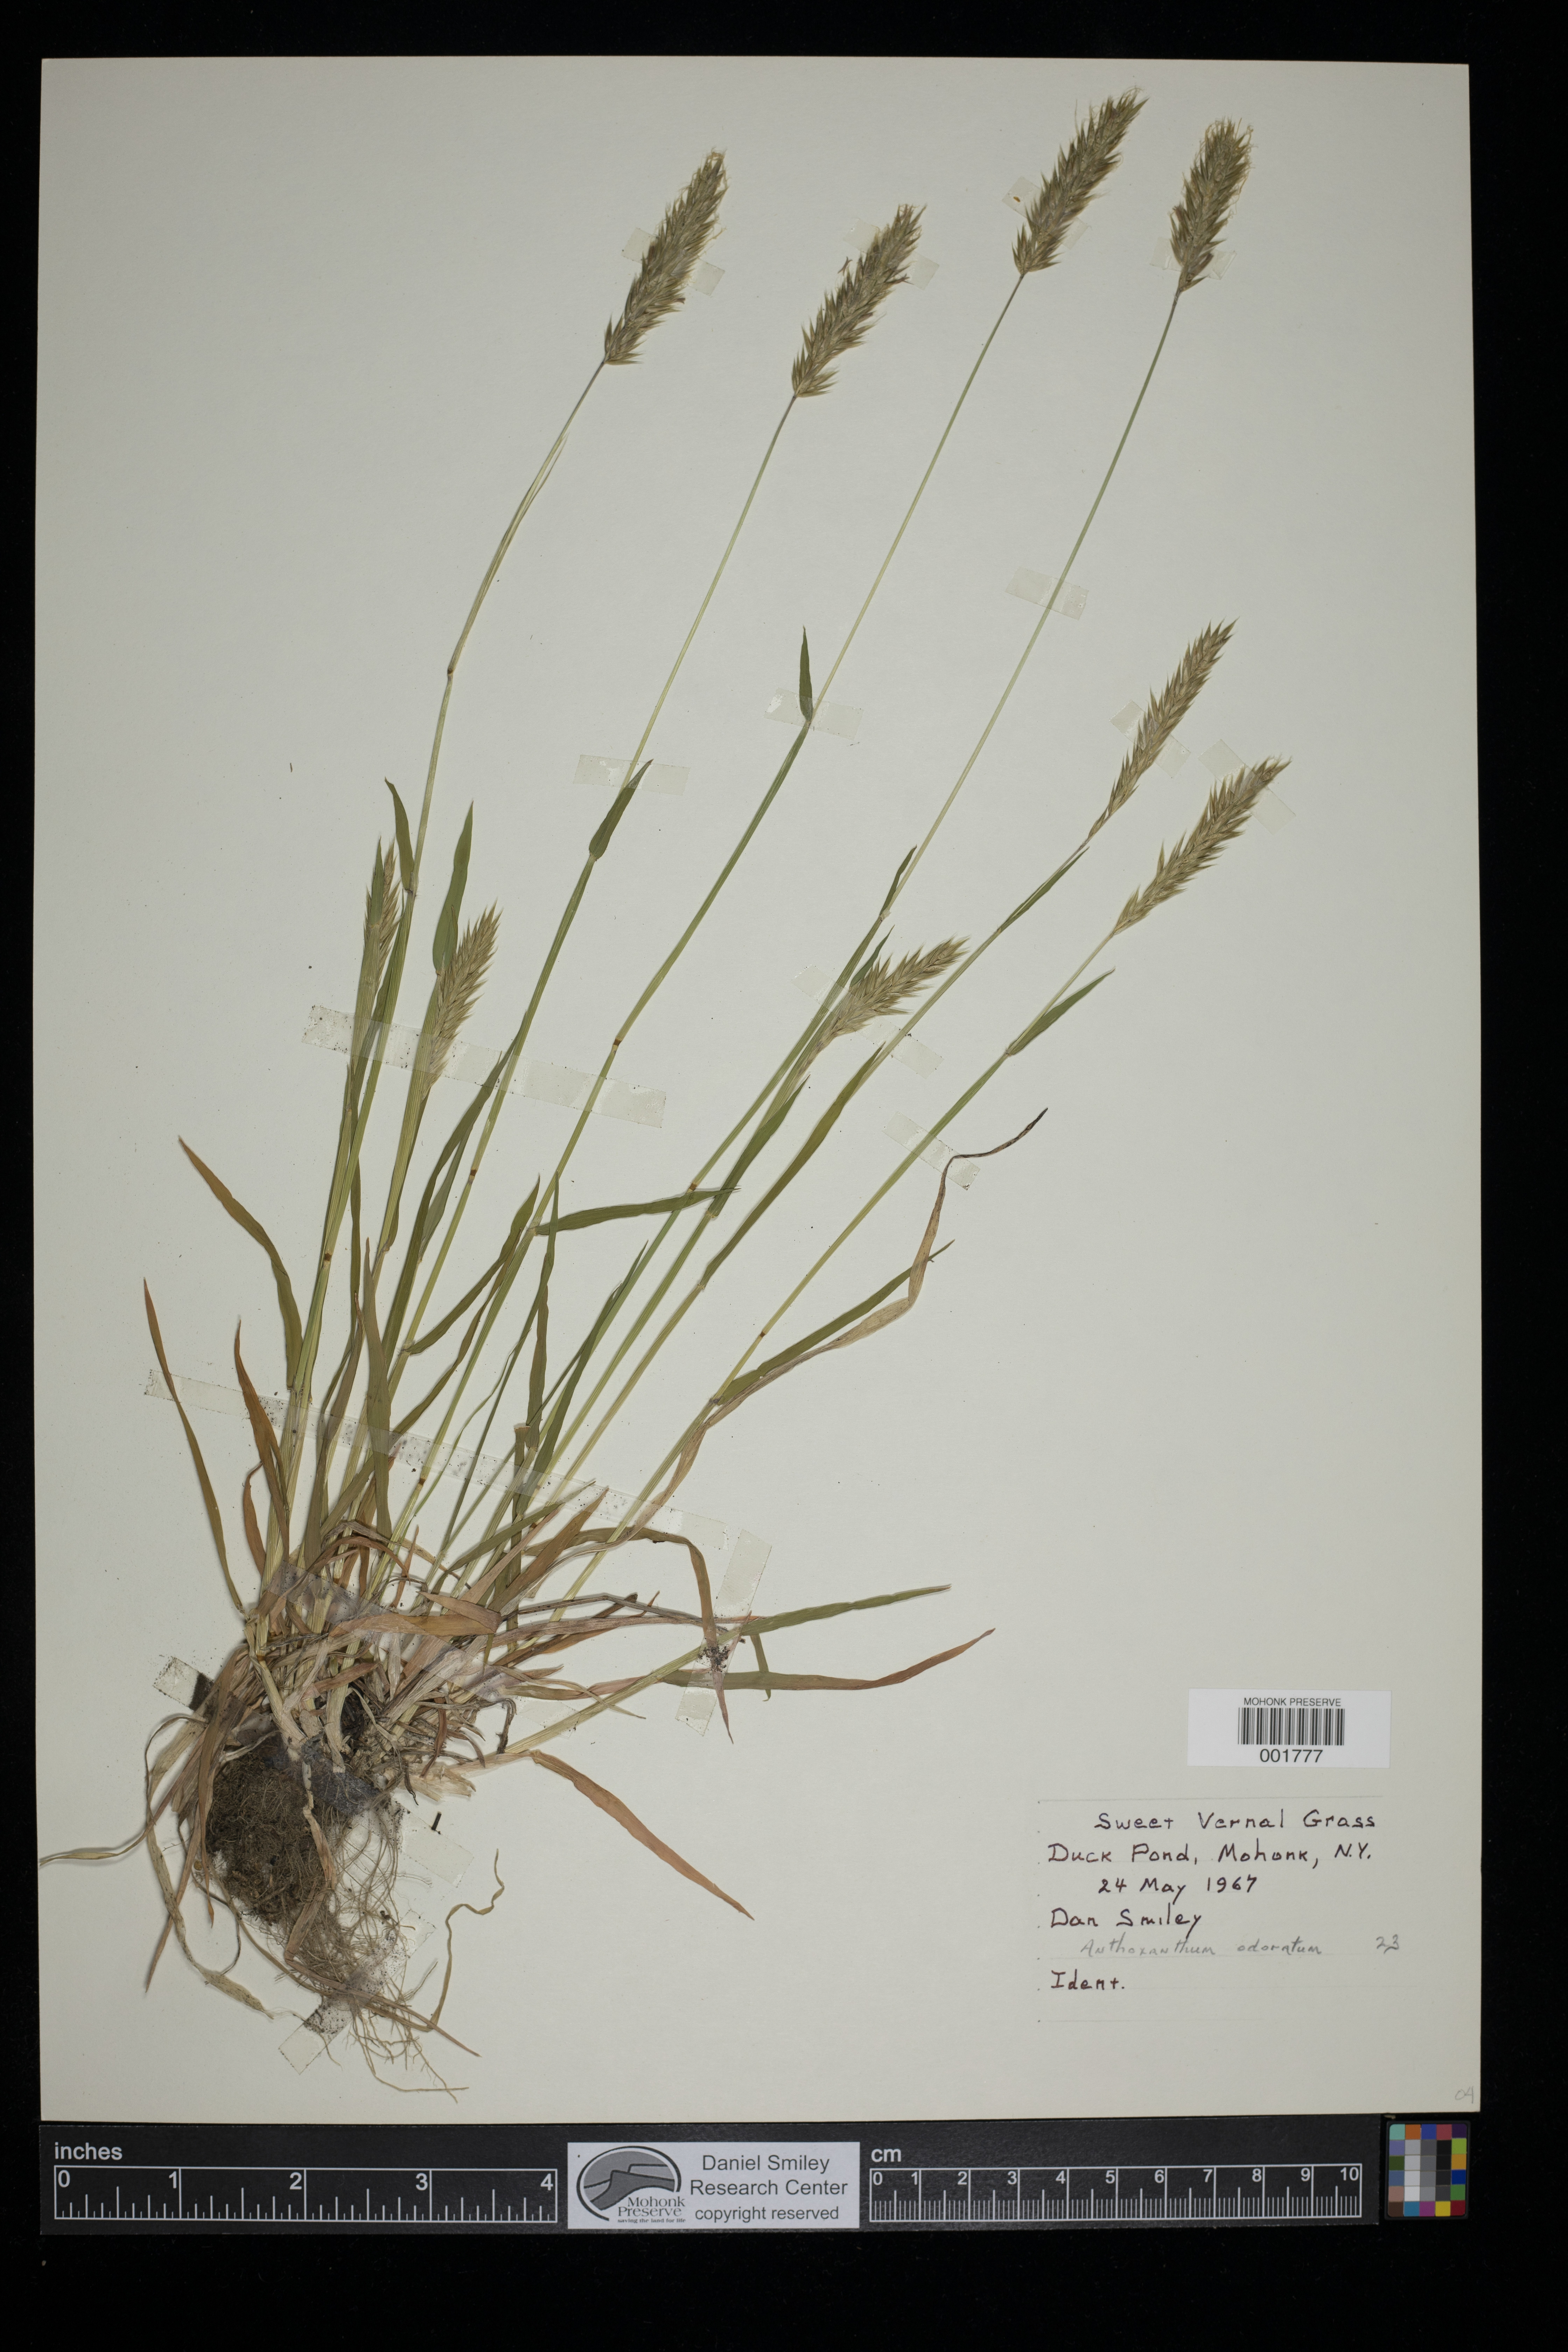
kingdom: Plantae
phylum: Tracheophyta
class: Liliopsida
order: Poales
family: Poaceae
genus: Anthoxanthum
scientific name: Anthoxanthum odoratum
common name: Sweet vernalgrass
